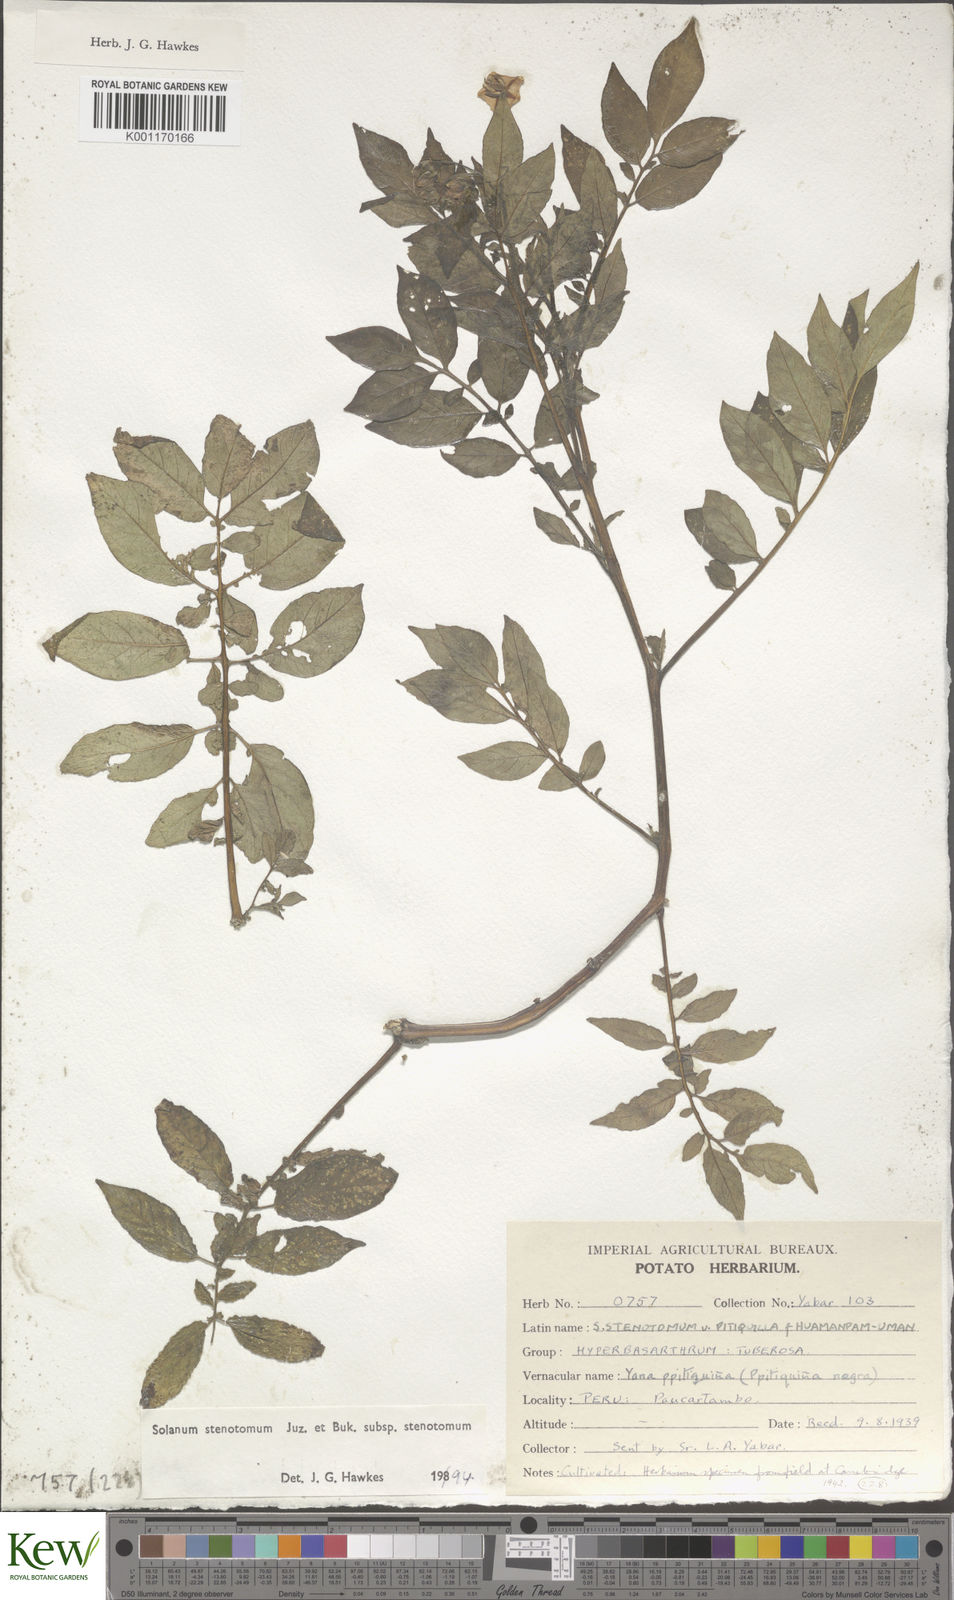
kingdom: Plantae
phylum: Tracheophyta
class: Magnoliopsida
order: Solanales
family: Solanaceae
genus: Solanum
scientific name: Solanum tuberosum
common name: Potato
